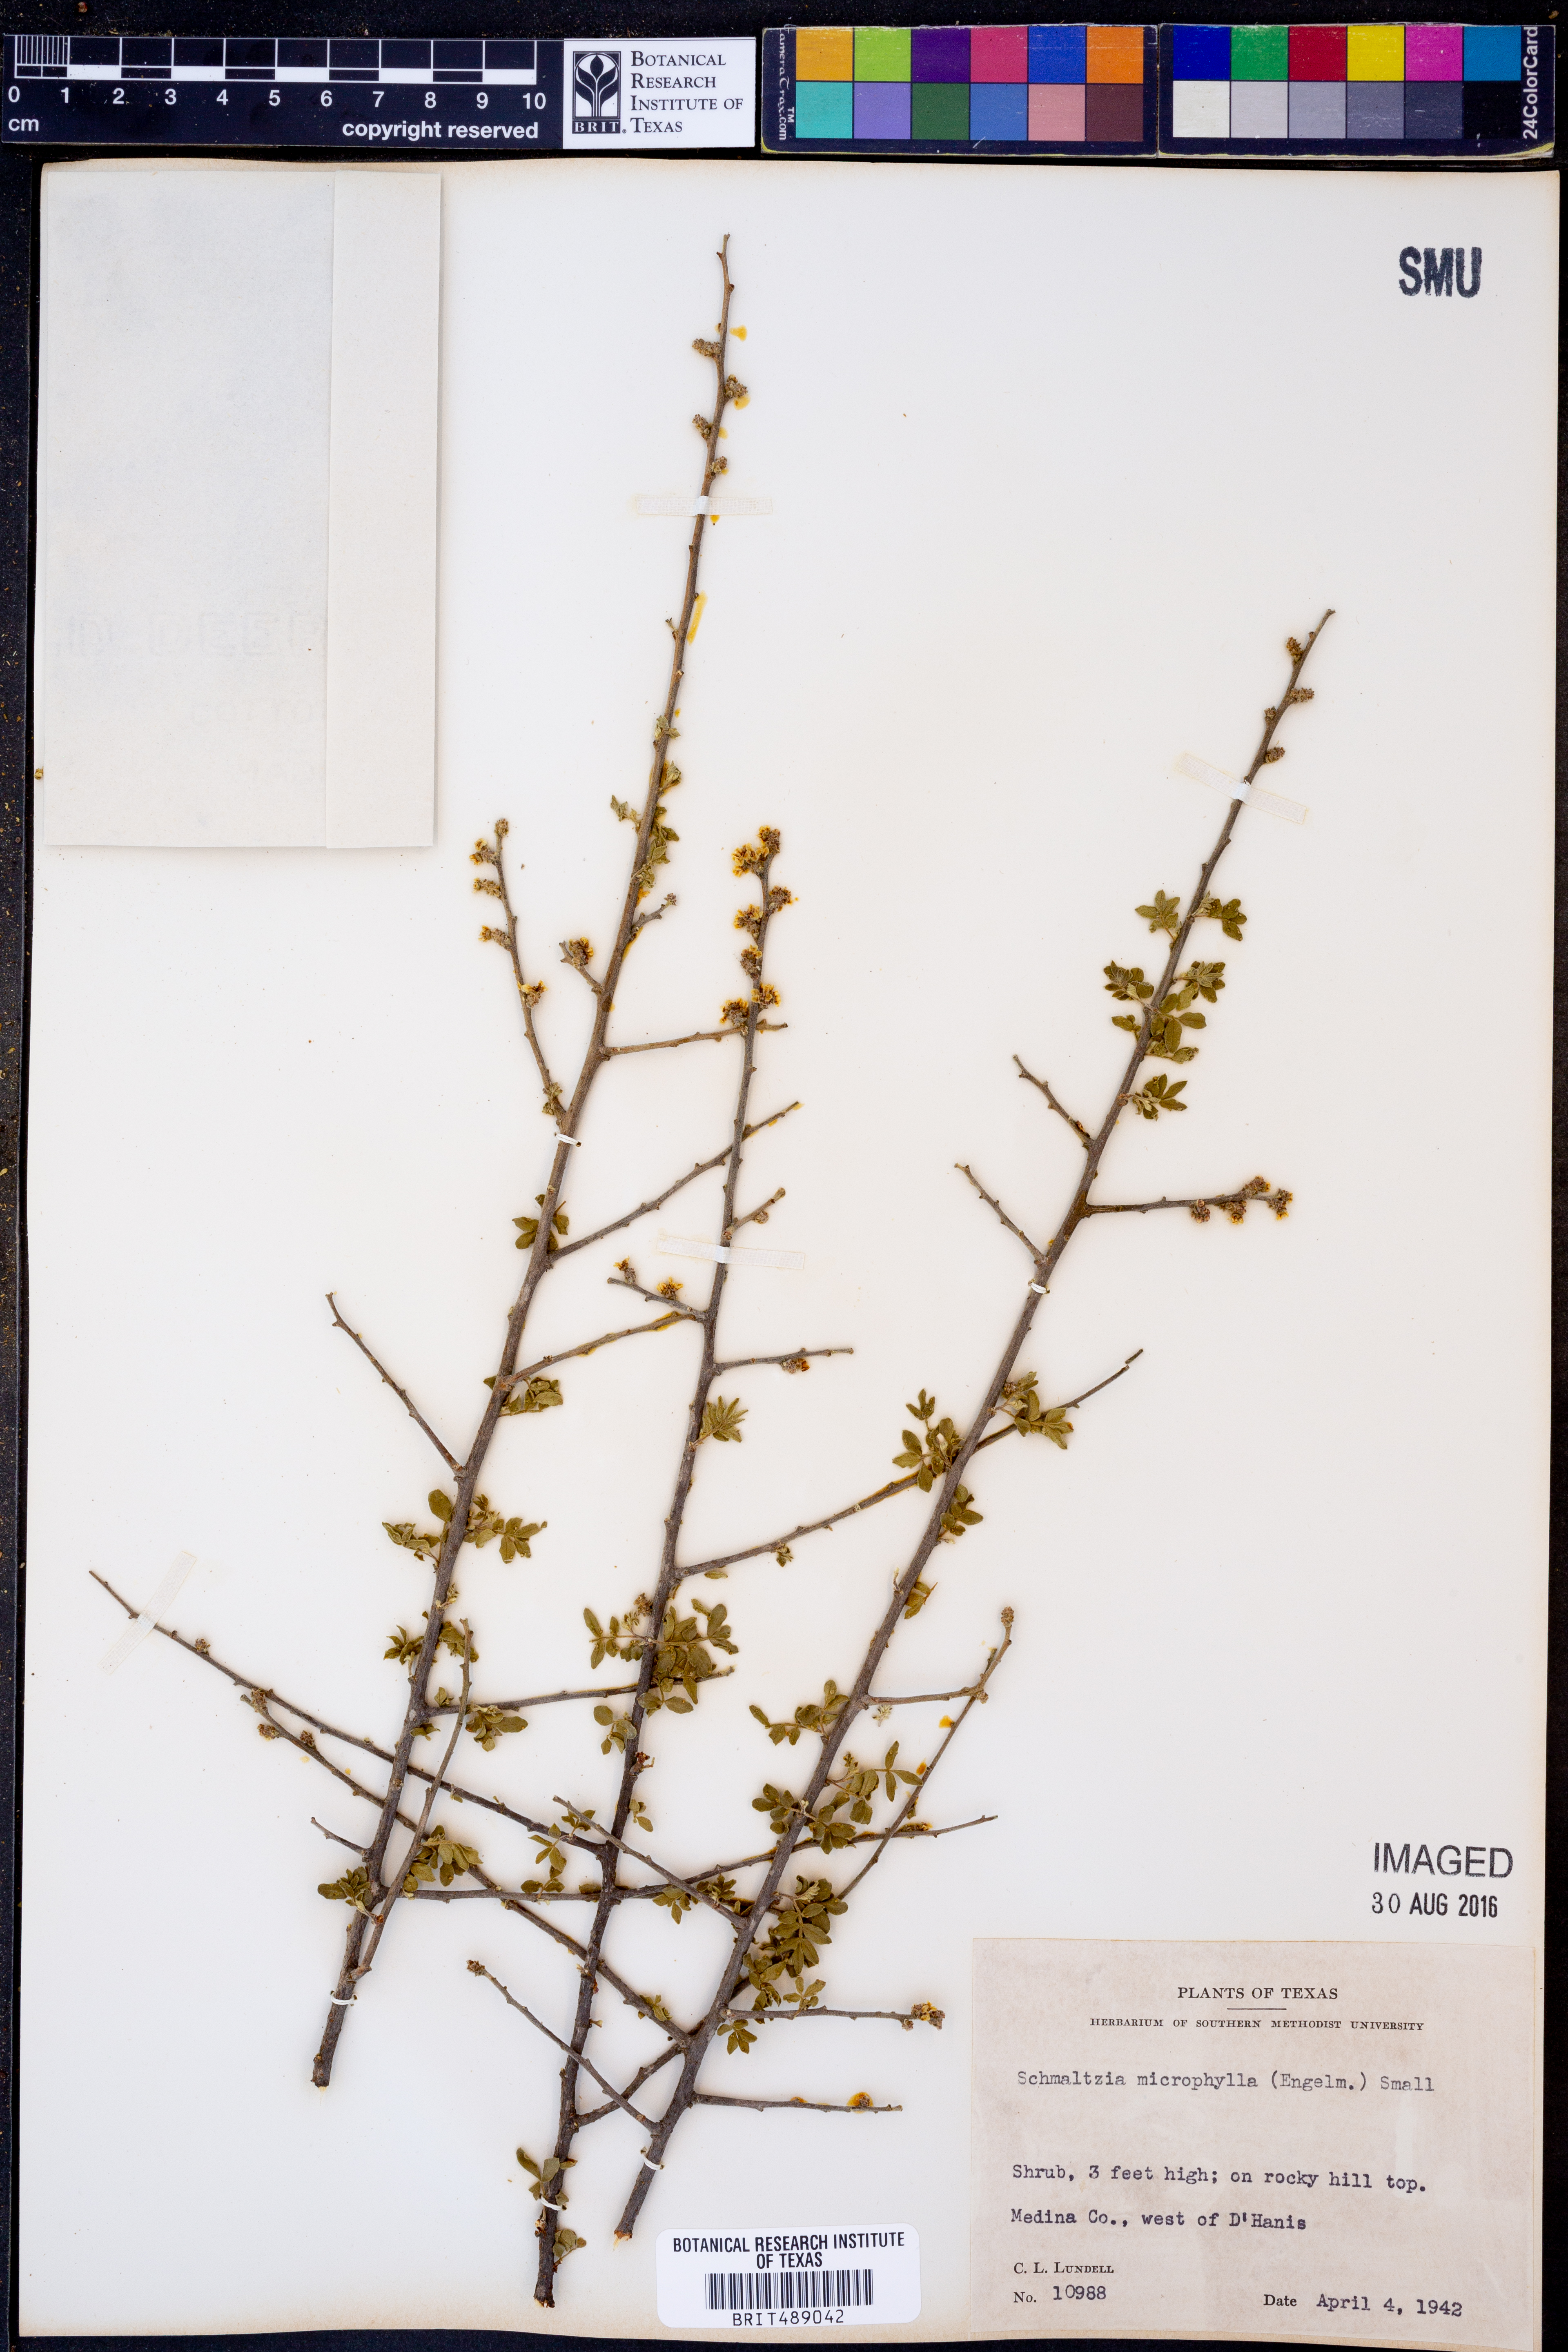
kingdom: Plantae
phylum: Tracheophyta
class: Magnoliopsida
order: Sapindales
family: Anacardiaceae
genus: Rhus
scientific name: Rhus microphylla
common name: Desert sumac
